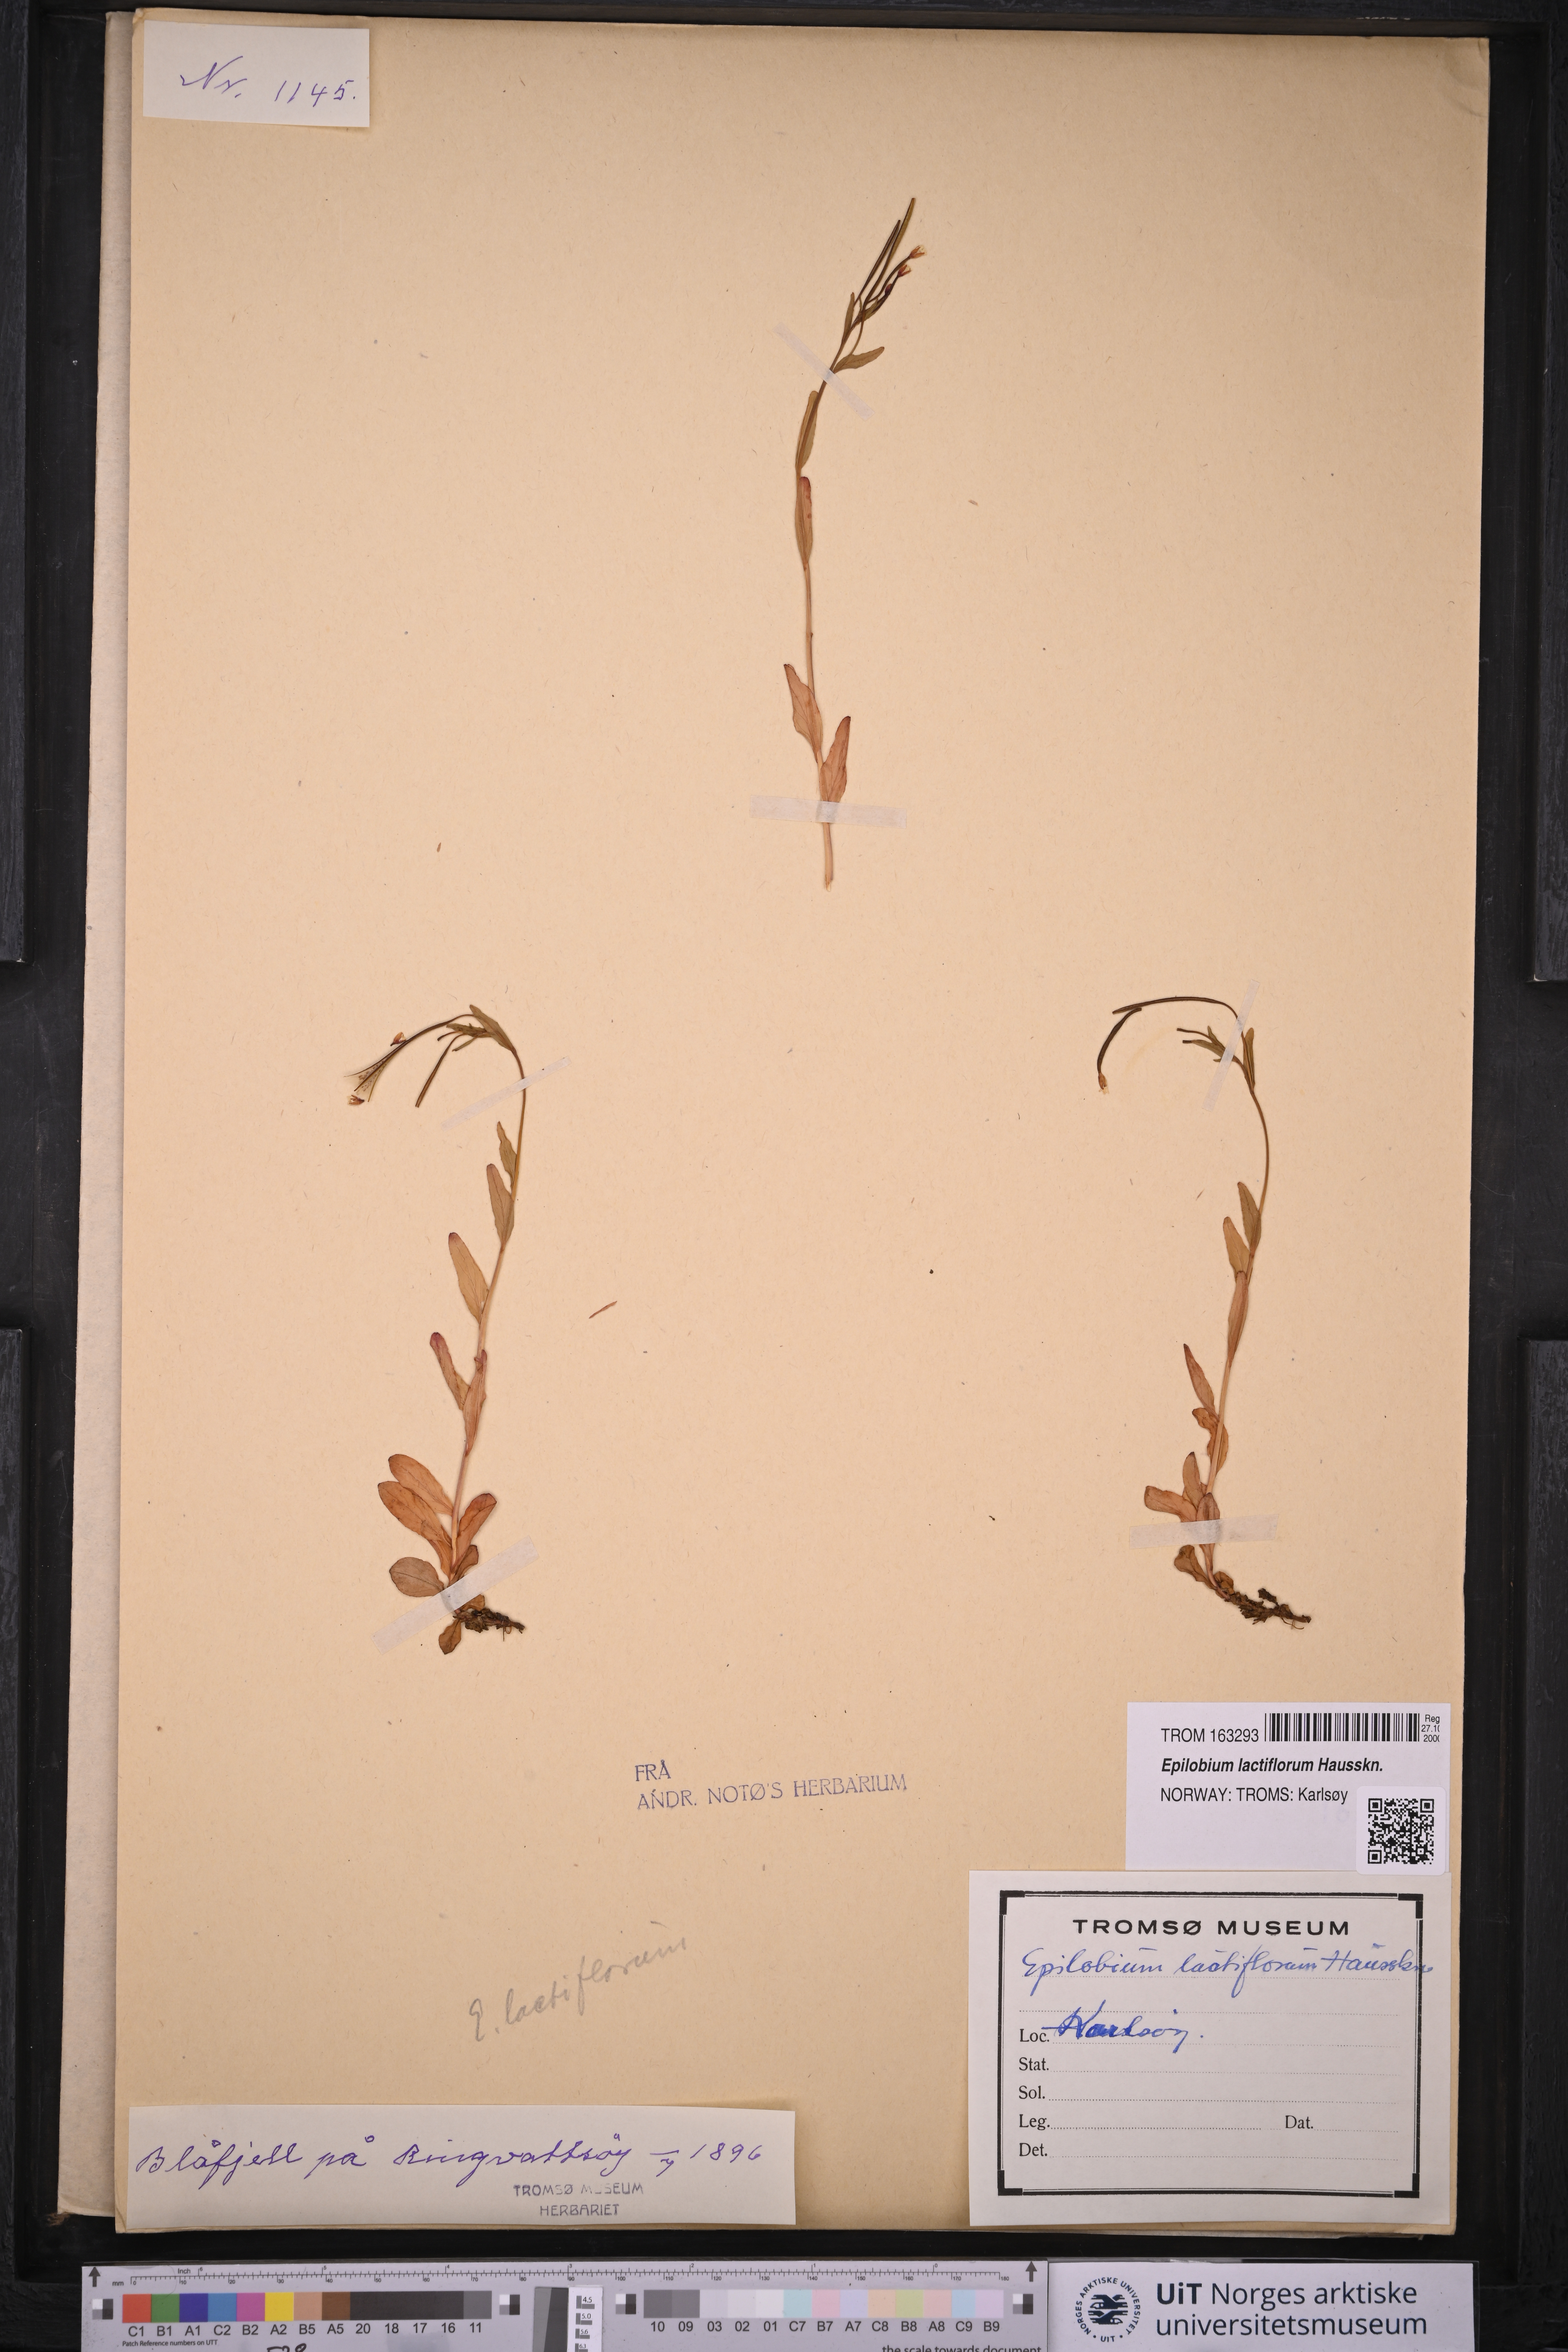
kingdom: Plantae
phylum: Tracheophyta
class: Magnoliopsida
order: Myrtales
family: Onagraceae
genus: Epilobium
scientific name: Epilobium lactiflorum
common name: Milkflower willowherb
